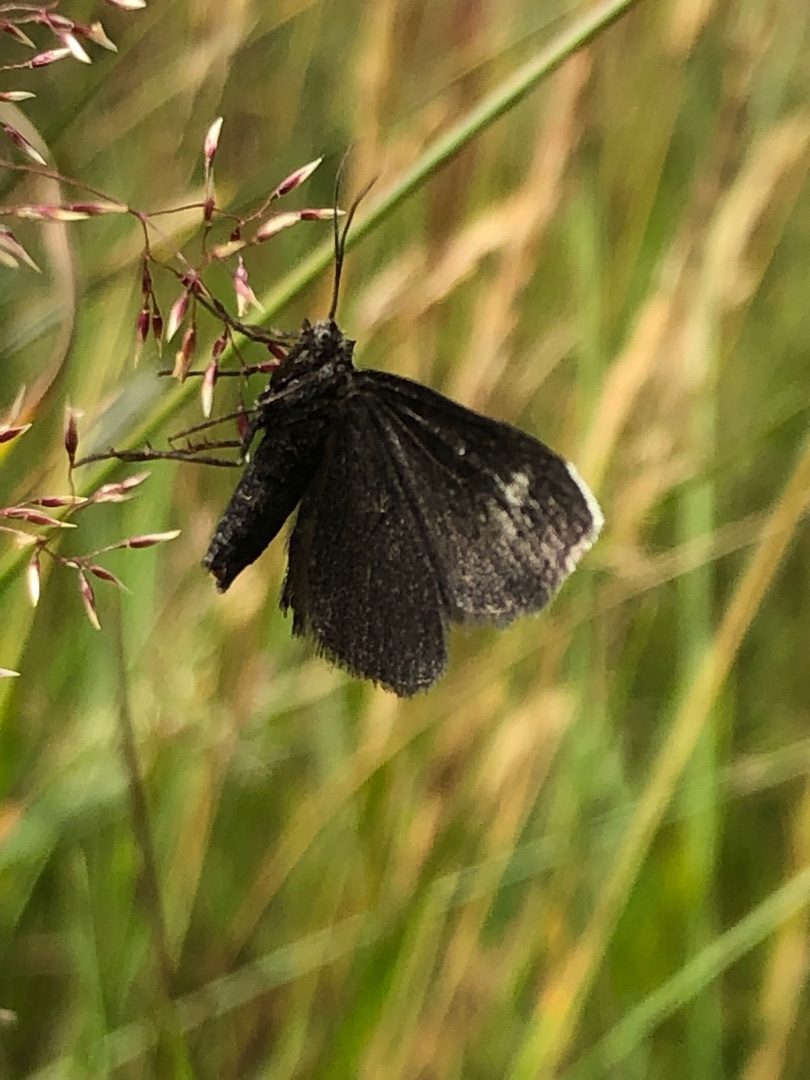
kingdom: Animalia
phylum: Arthropoda
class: Insecta
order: Lepidoptera
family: Geometridae
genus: Odezia
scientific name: Odezia atrata
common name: Sort måler
